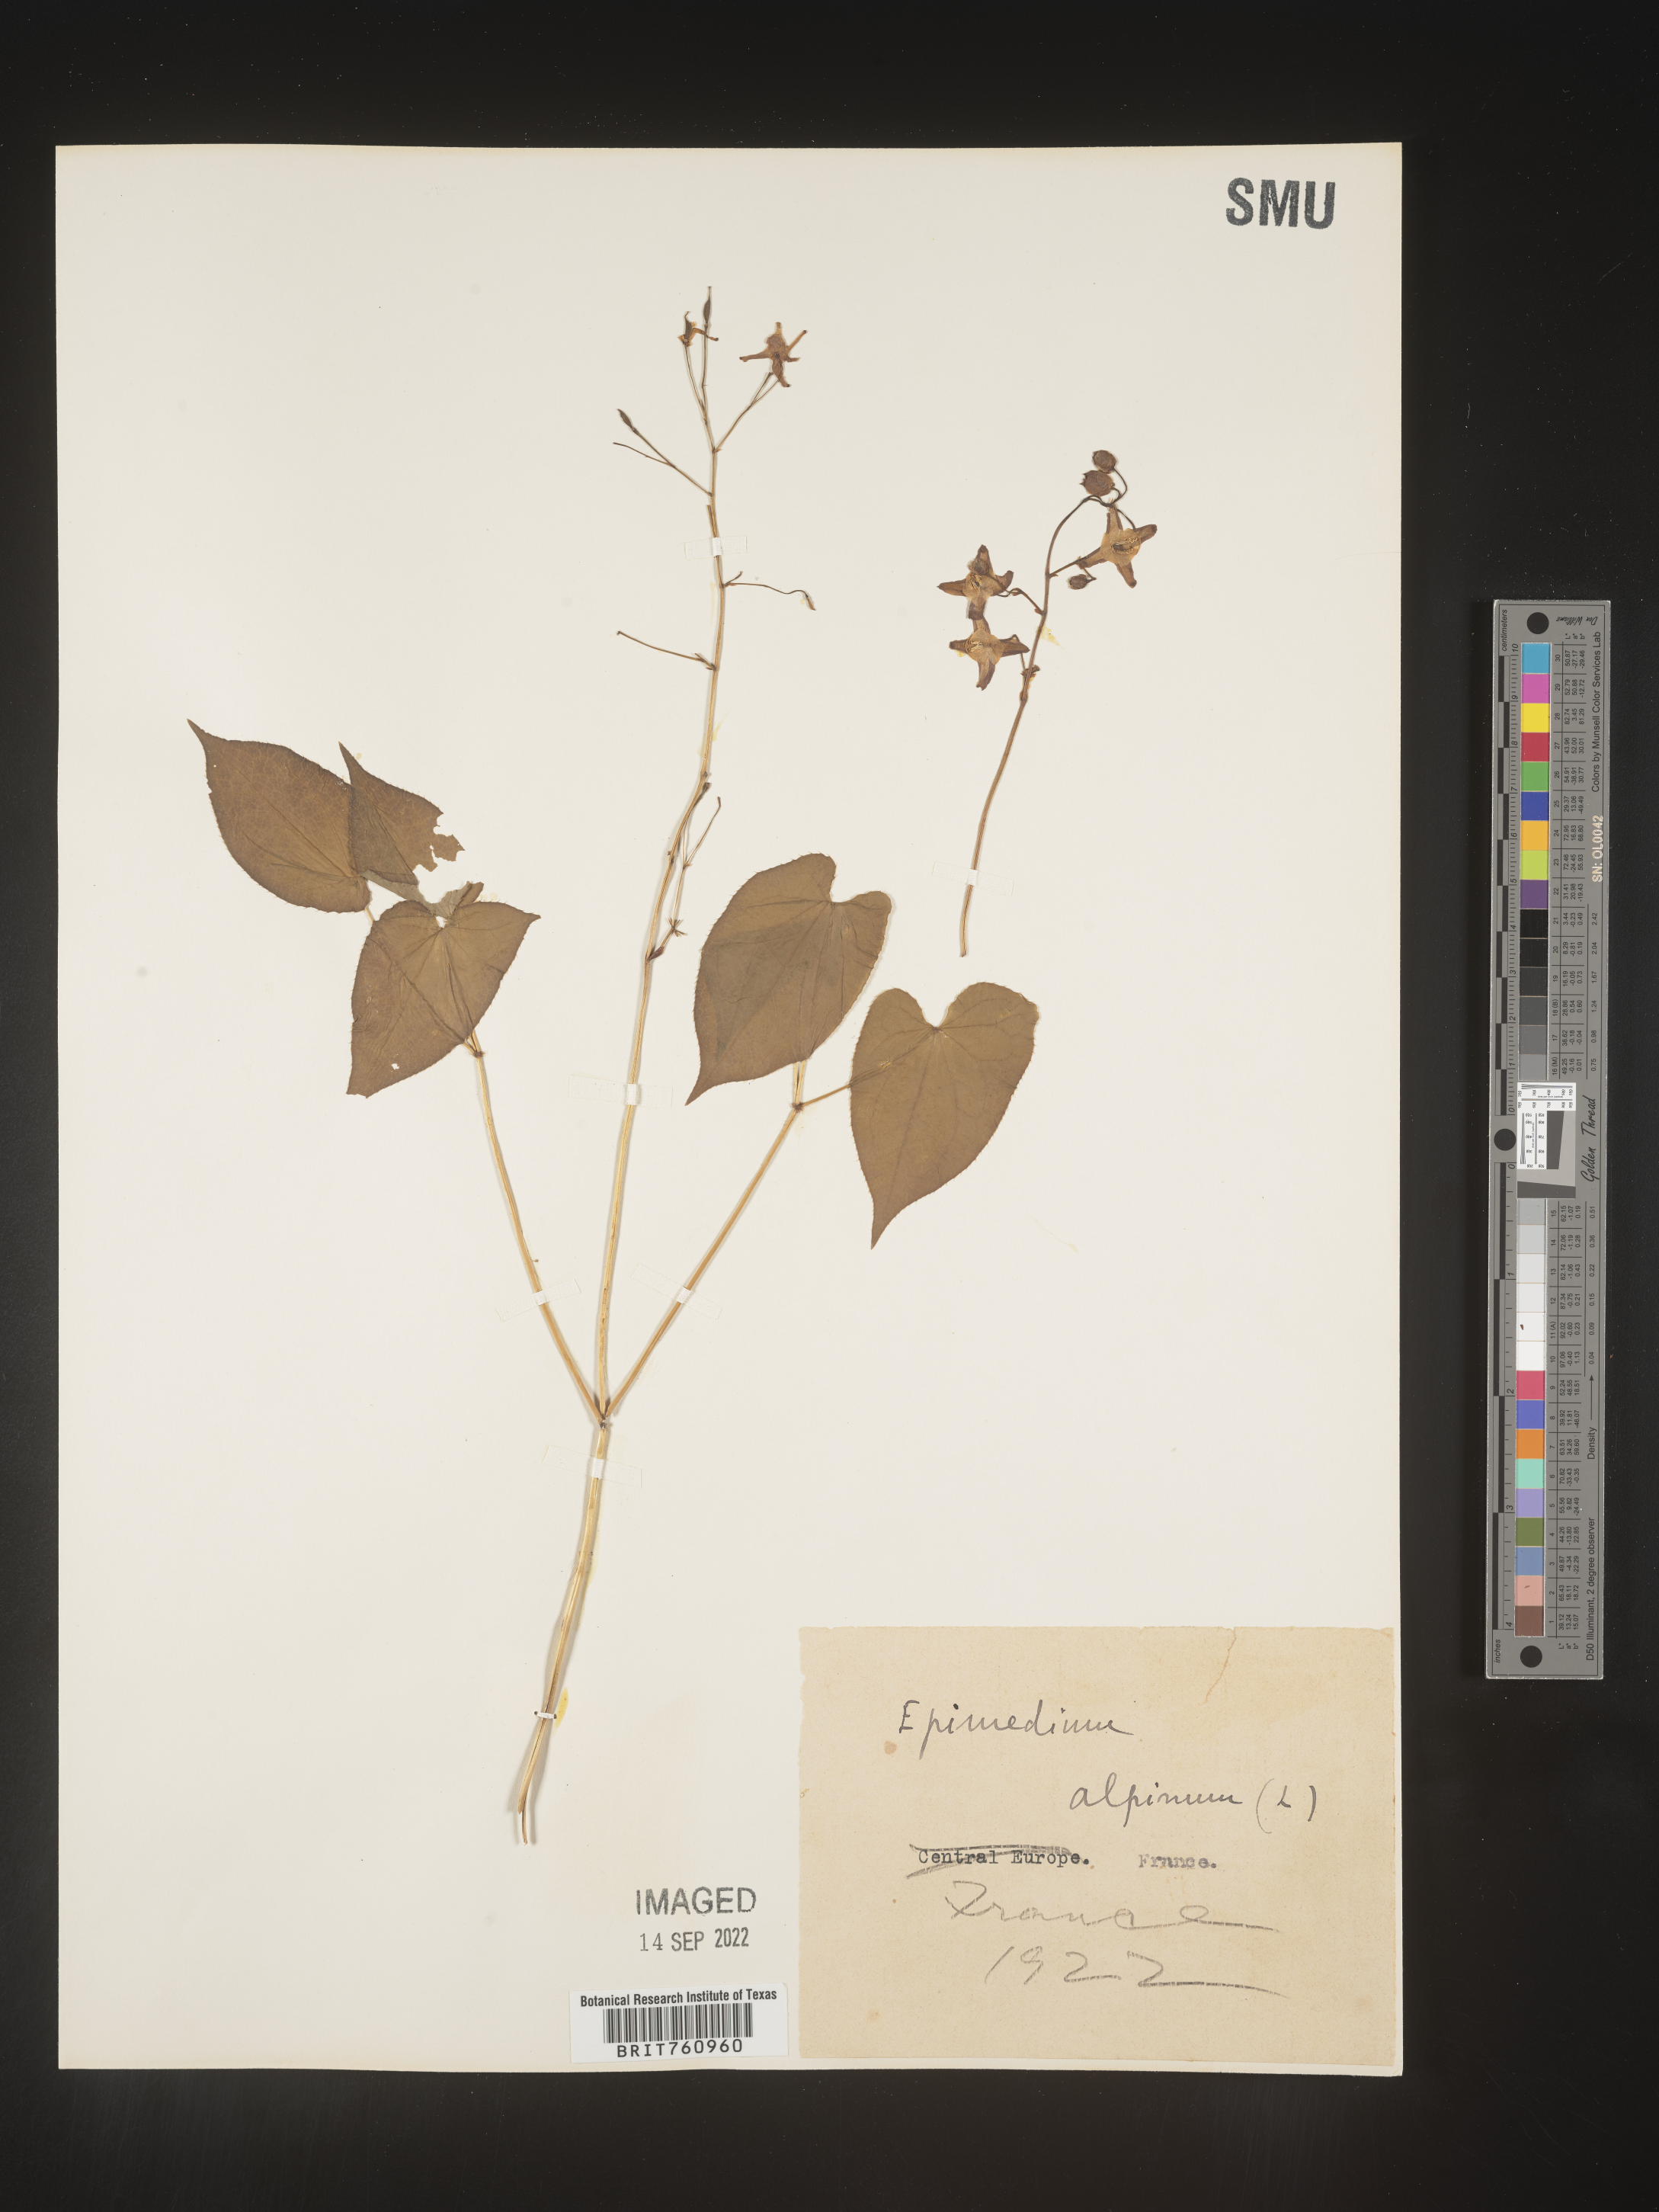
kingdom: Plantae
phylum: Tracheophyta
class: Magnoliopsida
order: Ranunculales
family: Berberidaceae
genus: Epimedium
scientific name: Epimedium
